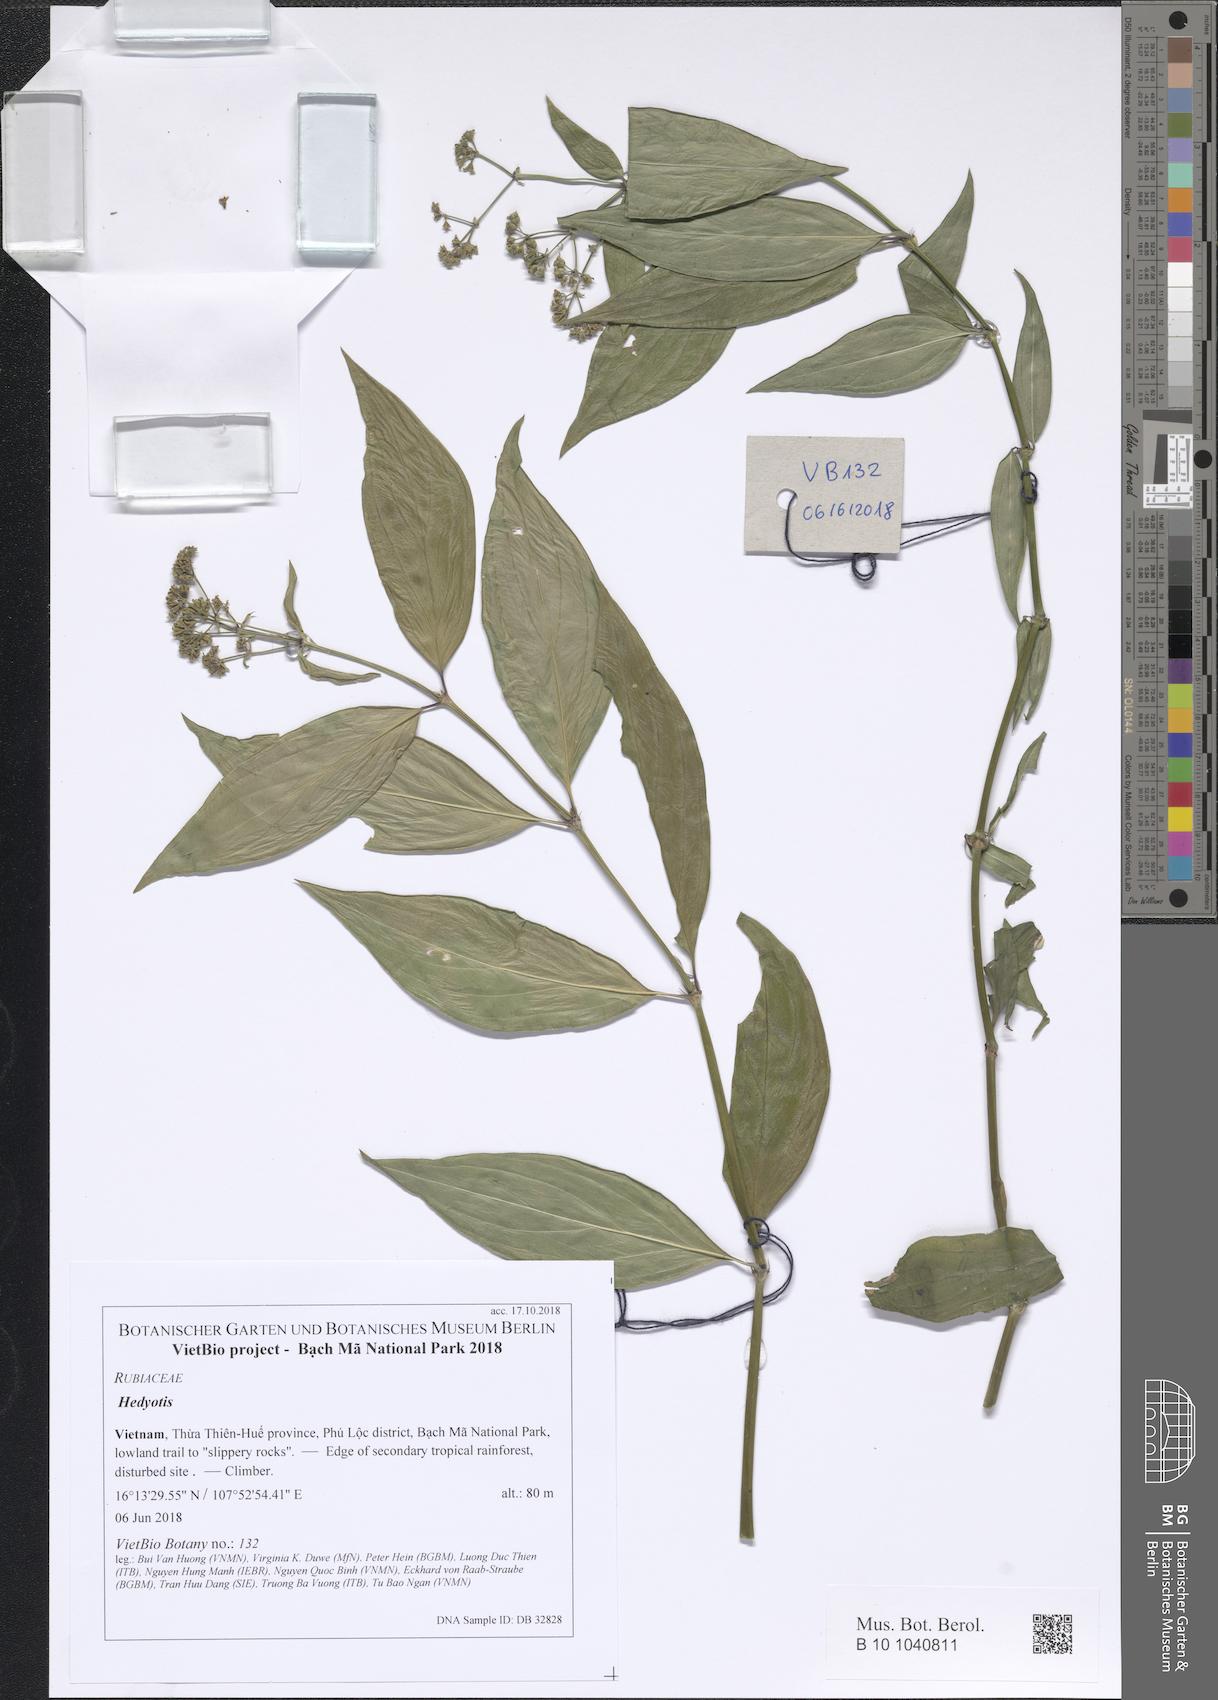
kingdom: Plantae
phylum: Tracheophyta
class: Magnoliopsida
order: Gentianales
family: Rubiaceae
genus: Oldenlandia
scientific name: Oldenlandia pilulifera
